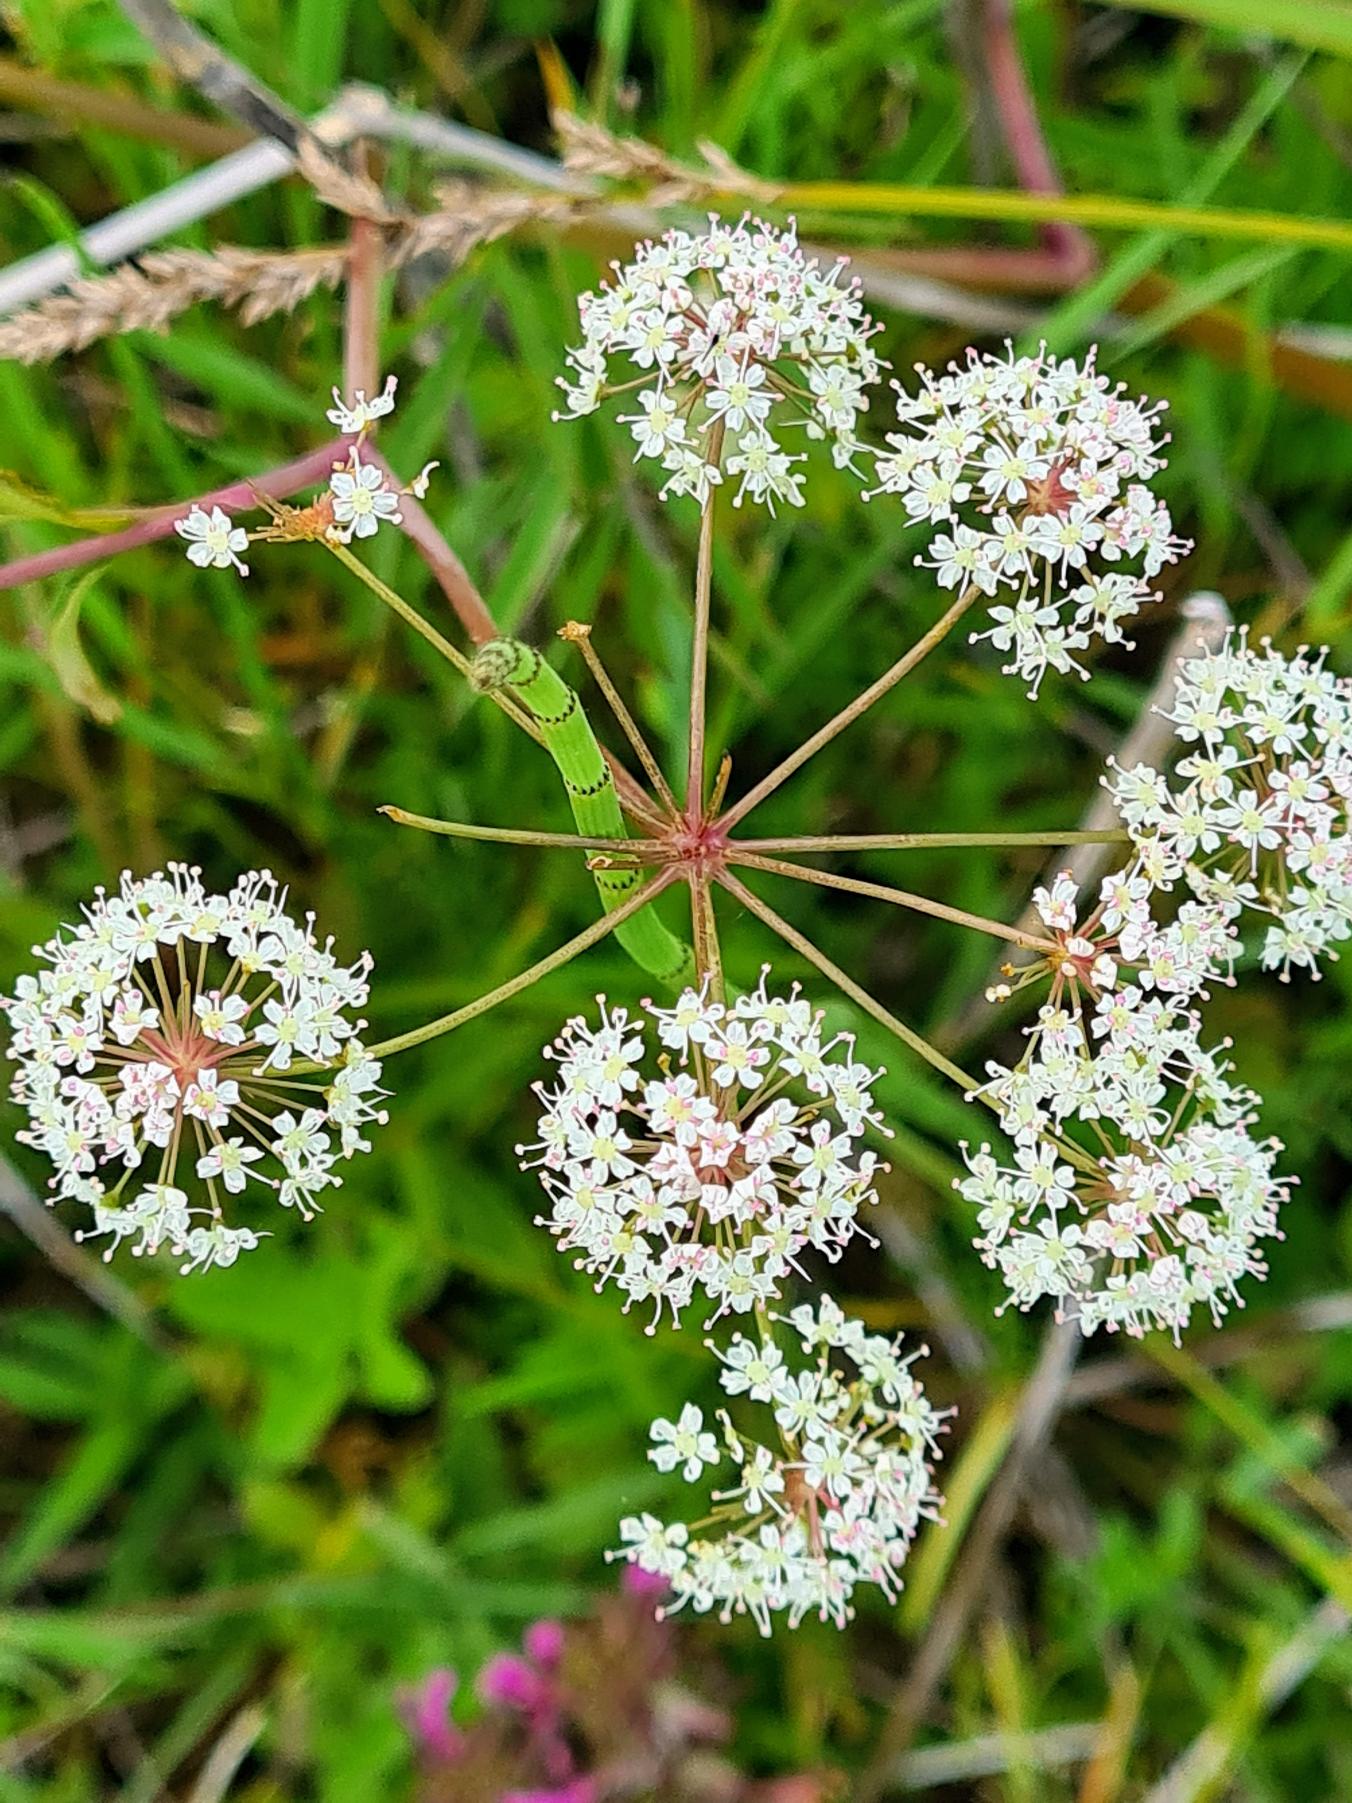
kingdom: Plantae
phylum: Tracheophyta
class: Magnoliopsida
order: Apiales
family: Apiaceae
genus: Cicuta
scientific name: Cicuta virosa
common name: Gifttyde
